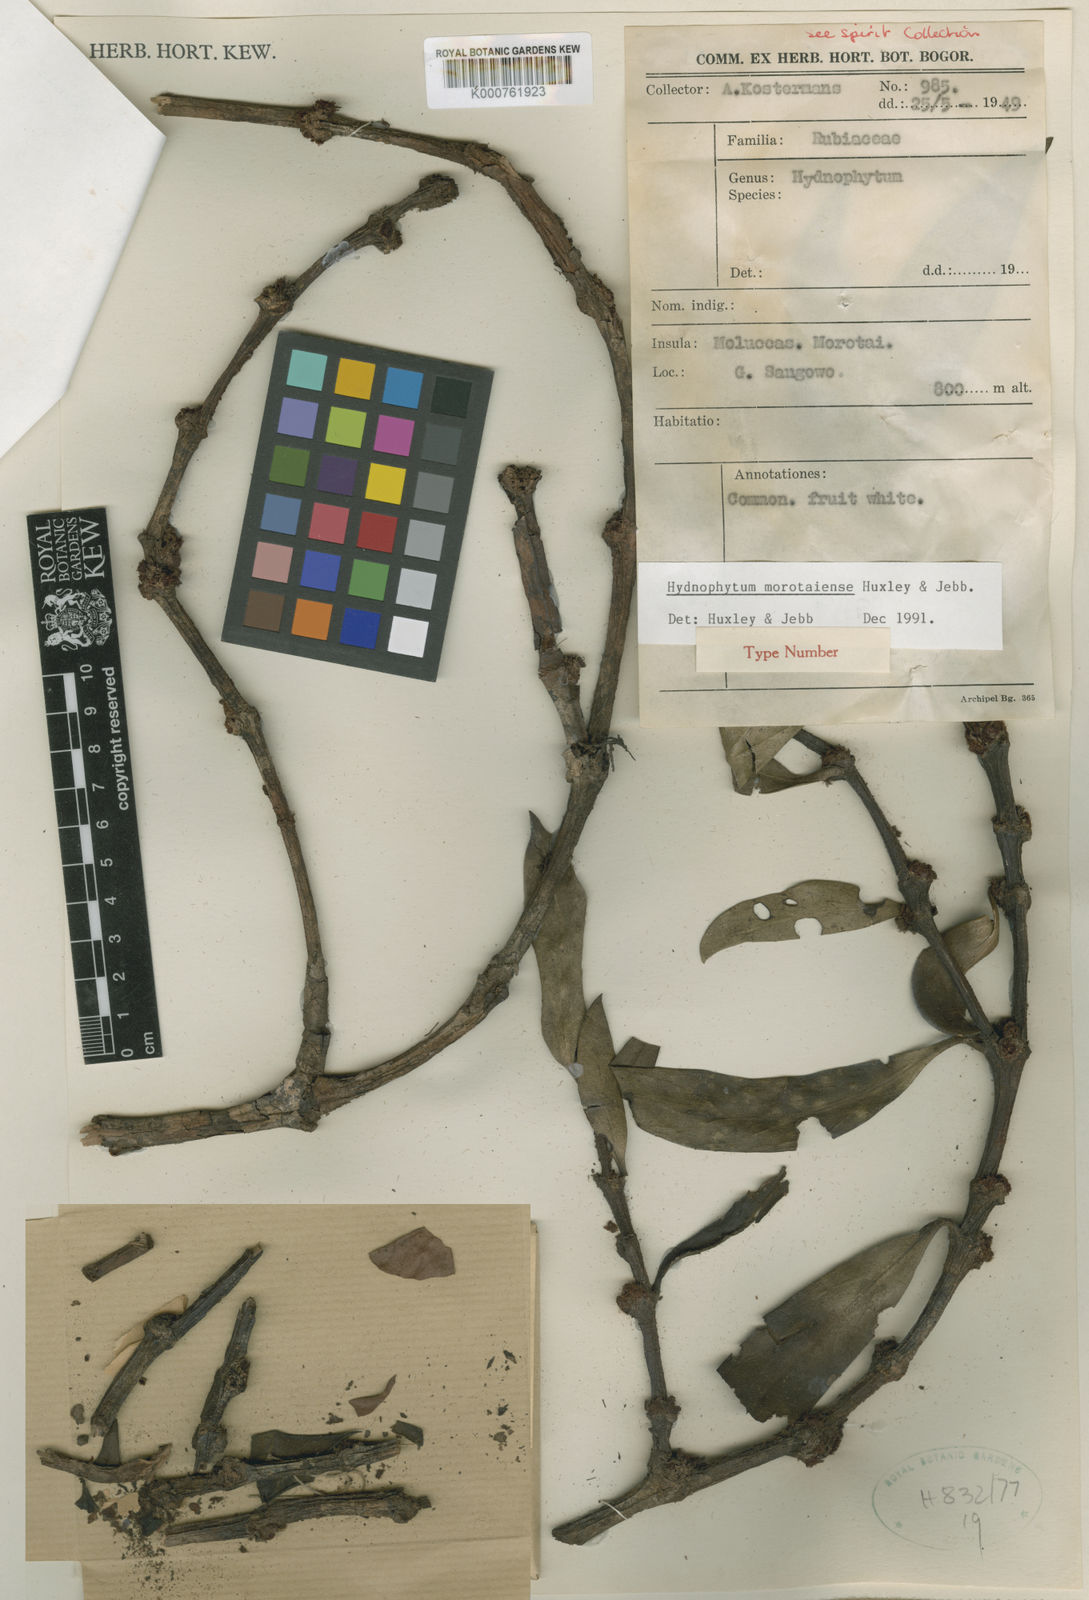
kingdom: Plantae
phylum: Tracheophyta
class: Magnoliopsida
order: Gentianales
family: Rubiaceae
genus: Hydnophytum
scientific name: Hydnophytum
